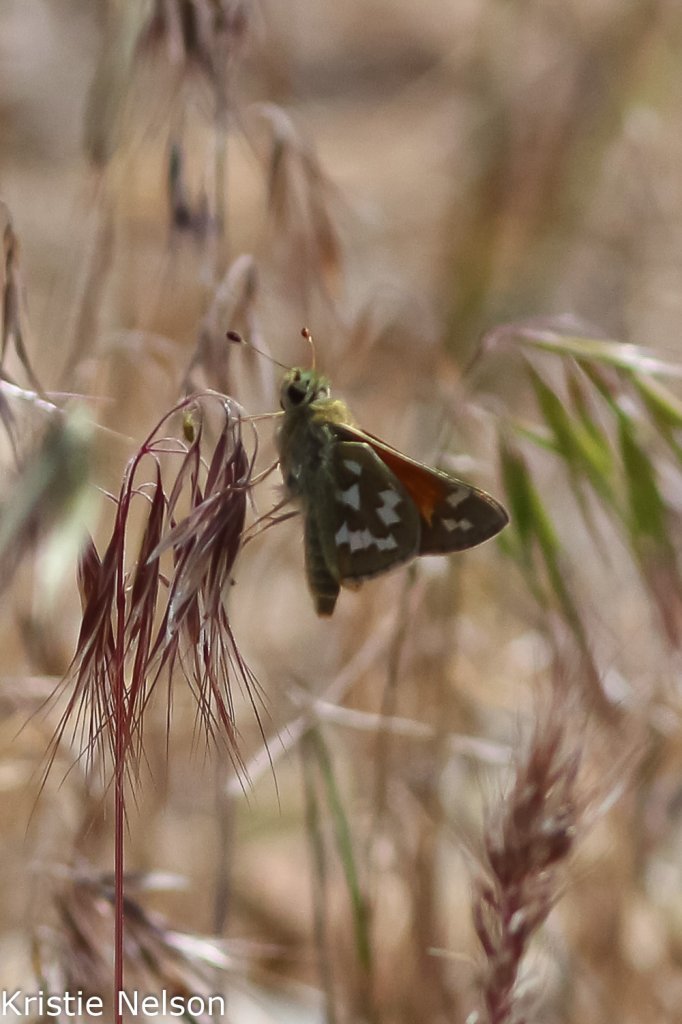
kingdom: Animalia
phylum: Arthropoda
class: Insecta
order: Lepidoptera
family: Hesperiidae
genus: Hesperia
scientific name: Hesperia juba
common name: Juba Skipper
